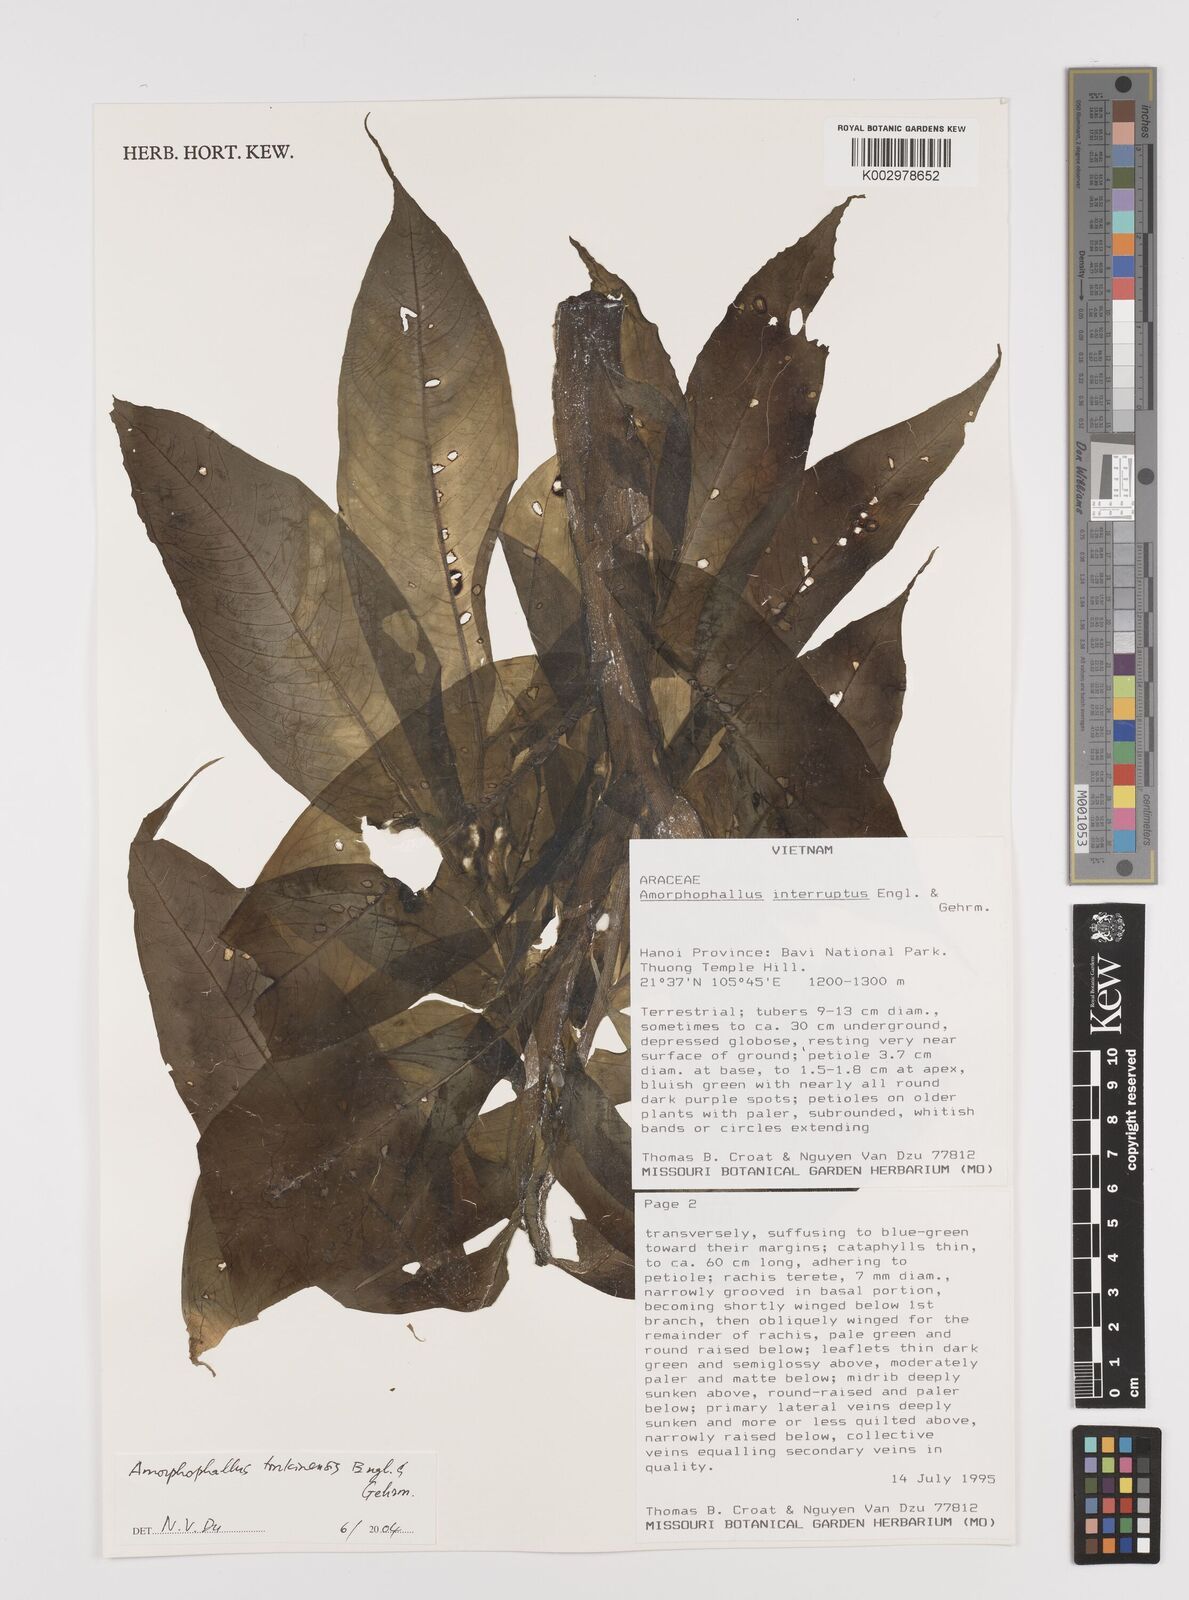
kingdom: Plantae
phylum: Tracheophyta
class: Liliopsida
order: Alismatales
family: Araceae
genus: Amorphophallus
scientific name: Amorphophallus interruptus
